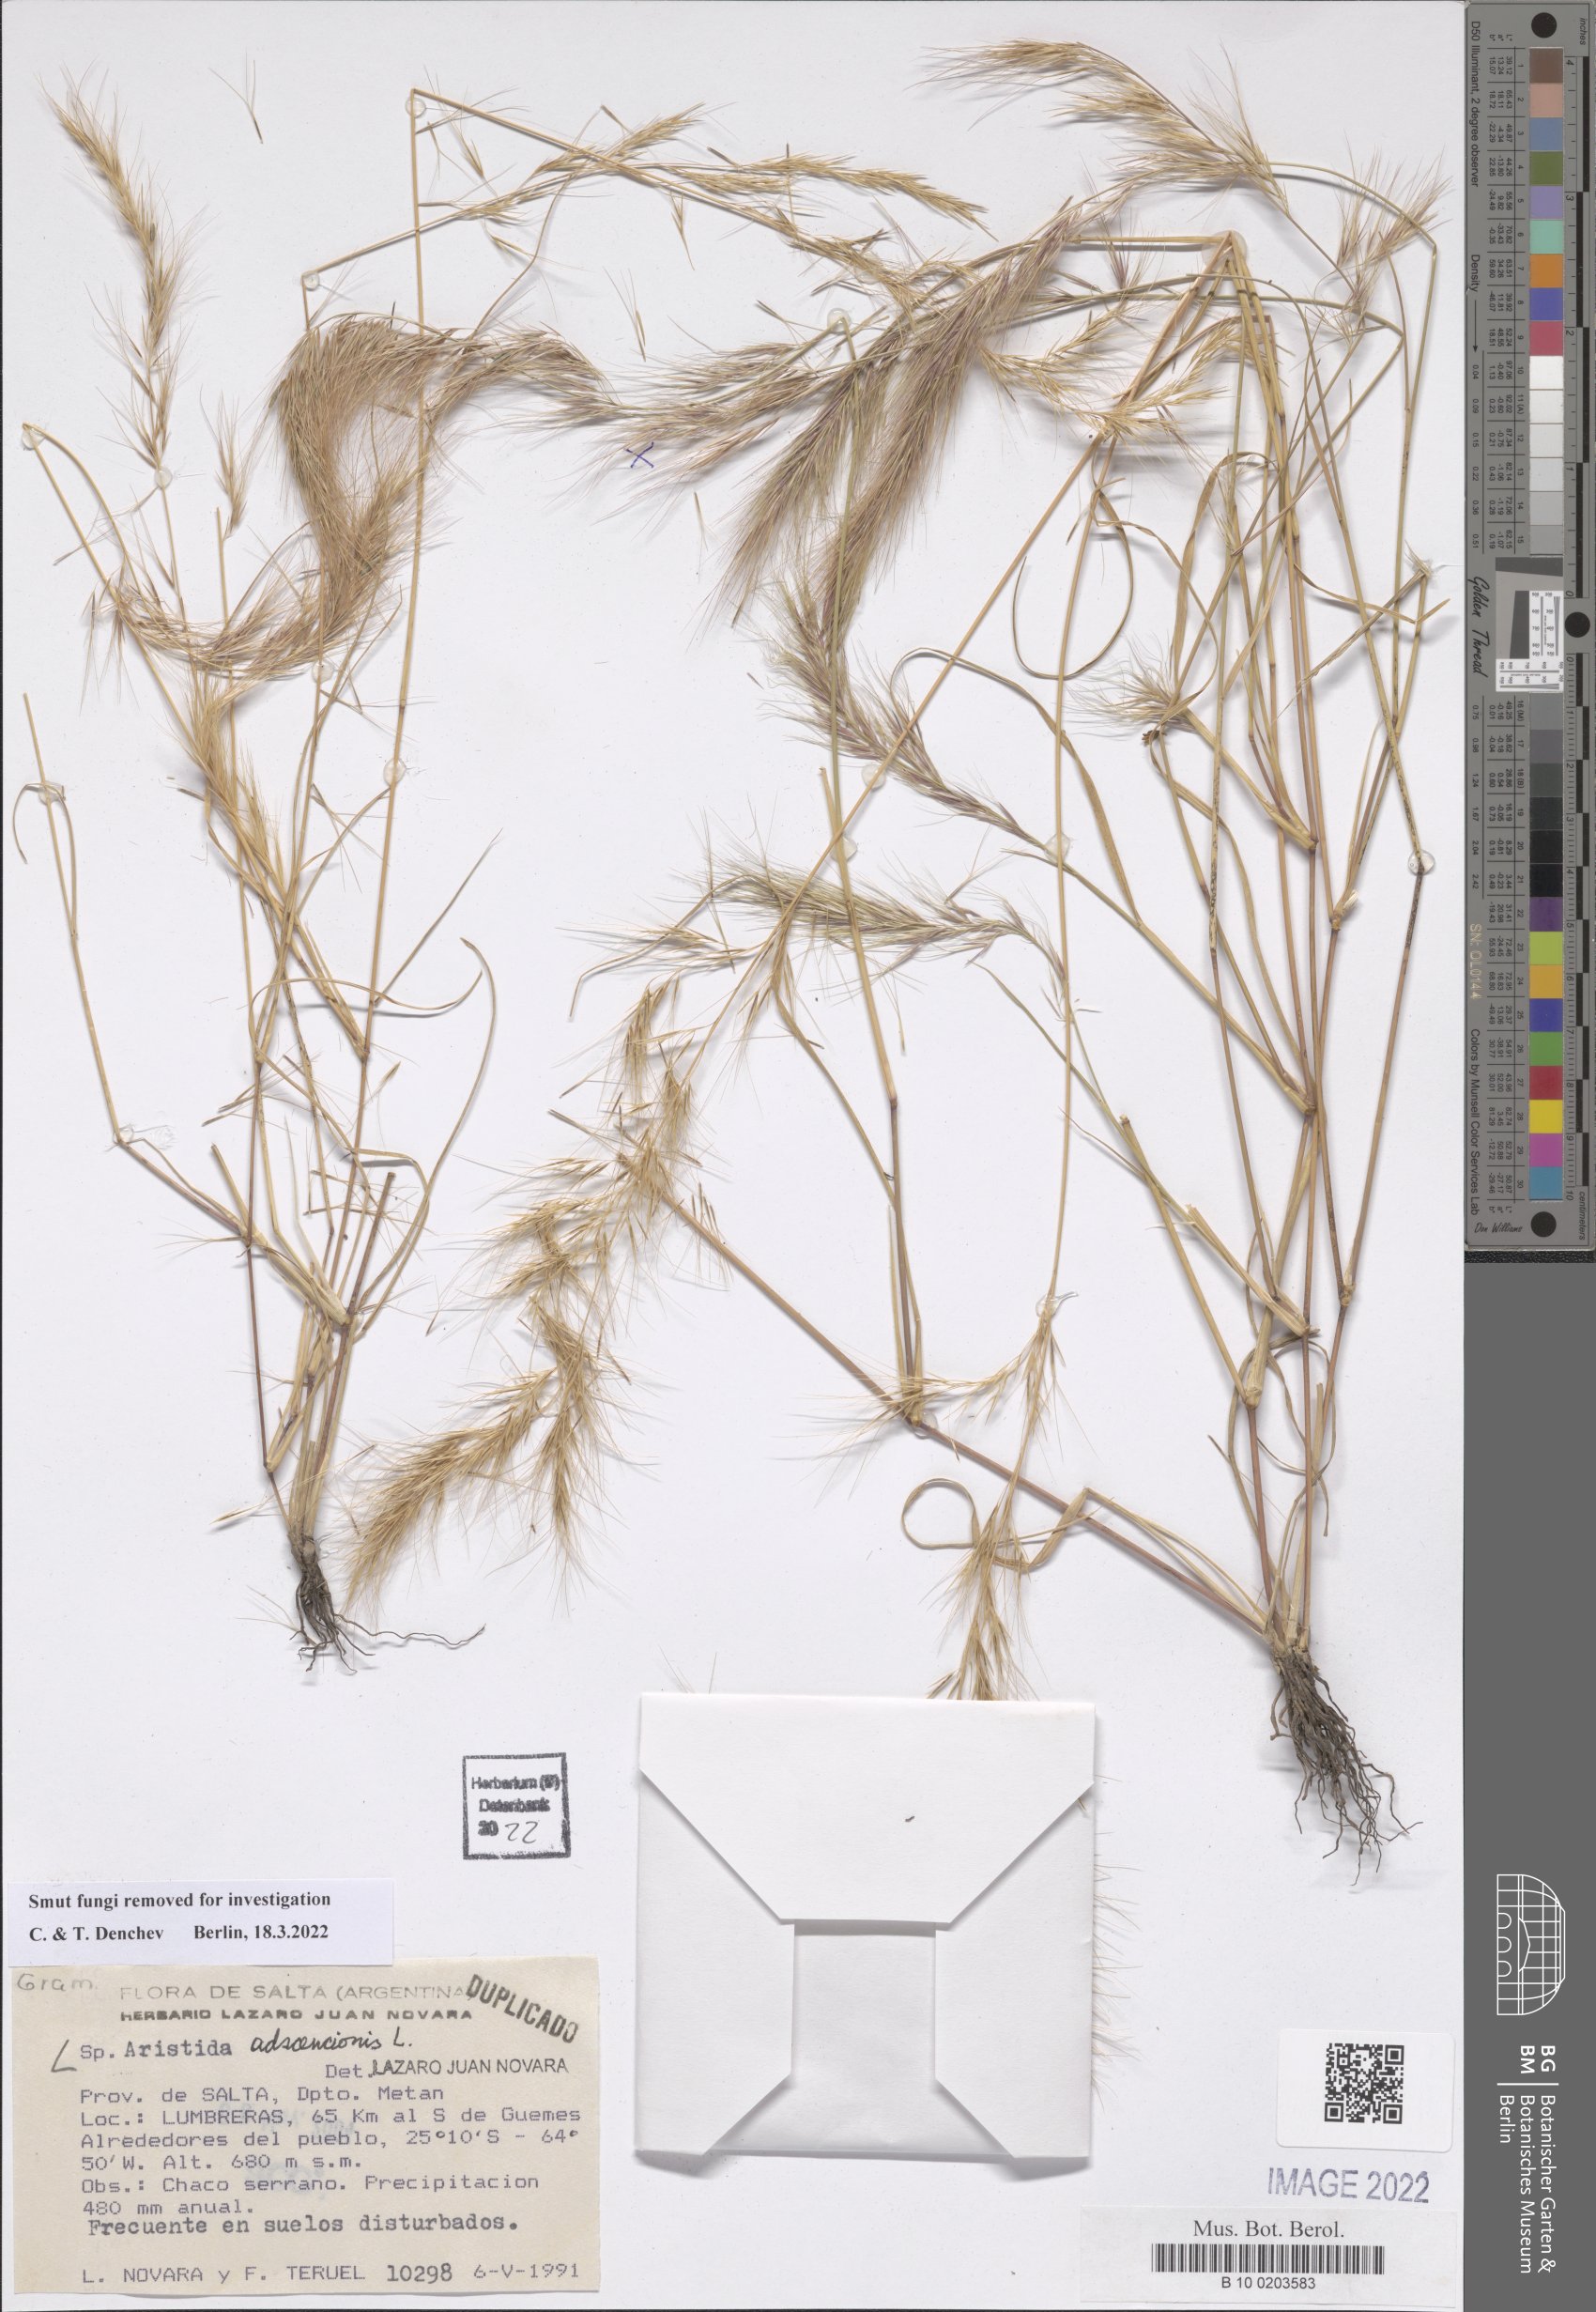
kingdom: Plantae
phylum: Tracheophyta
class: Liliopsida
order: Poales
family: Poaceae
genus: Aristida
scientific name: Aristida adscensionis
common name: Sixweeks threeawn
